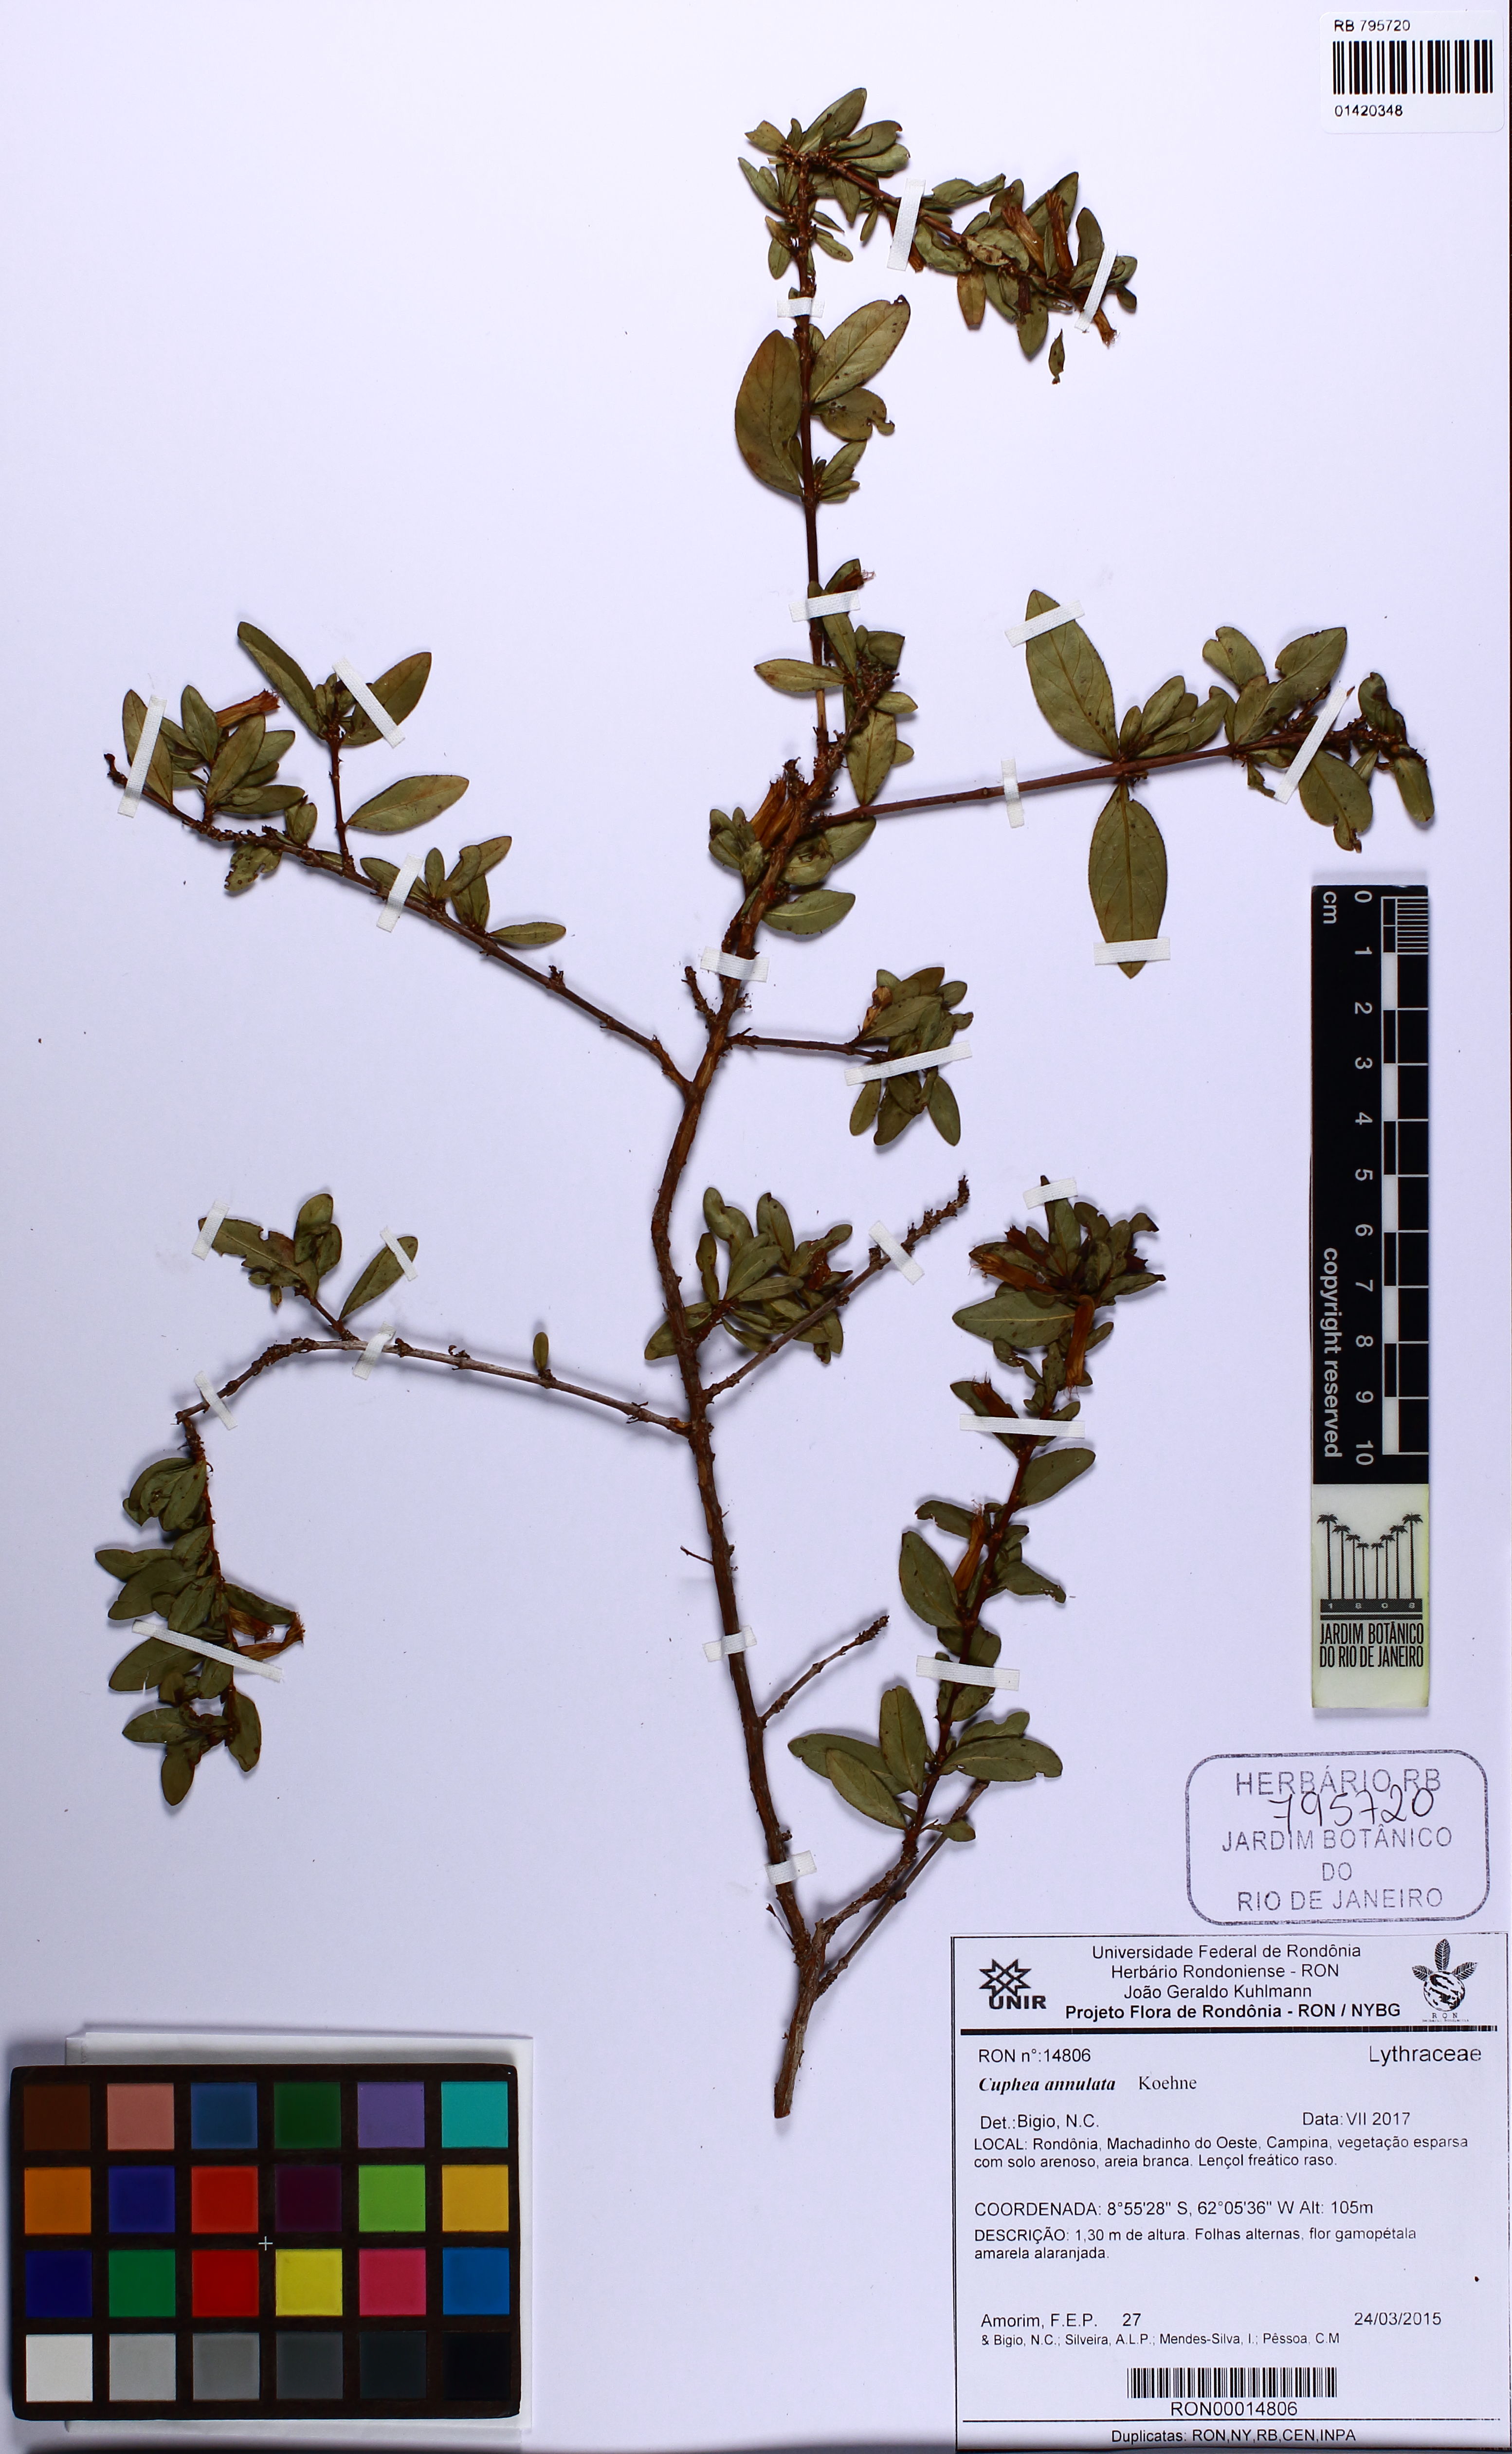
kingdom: Plantae
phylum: Tracheophyta
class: Magnoliopsida
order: Myrtales
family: Lythraceae
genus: Cuphea
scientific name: Cuphea annulata
